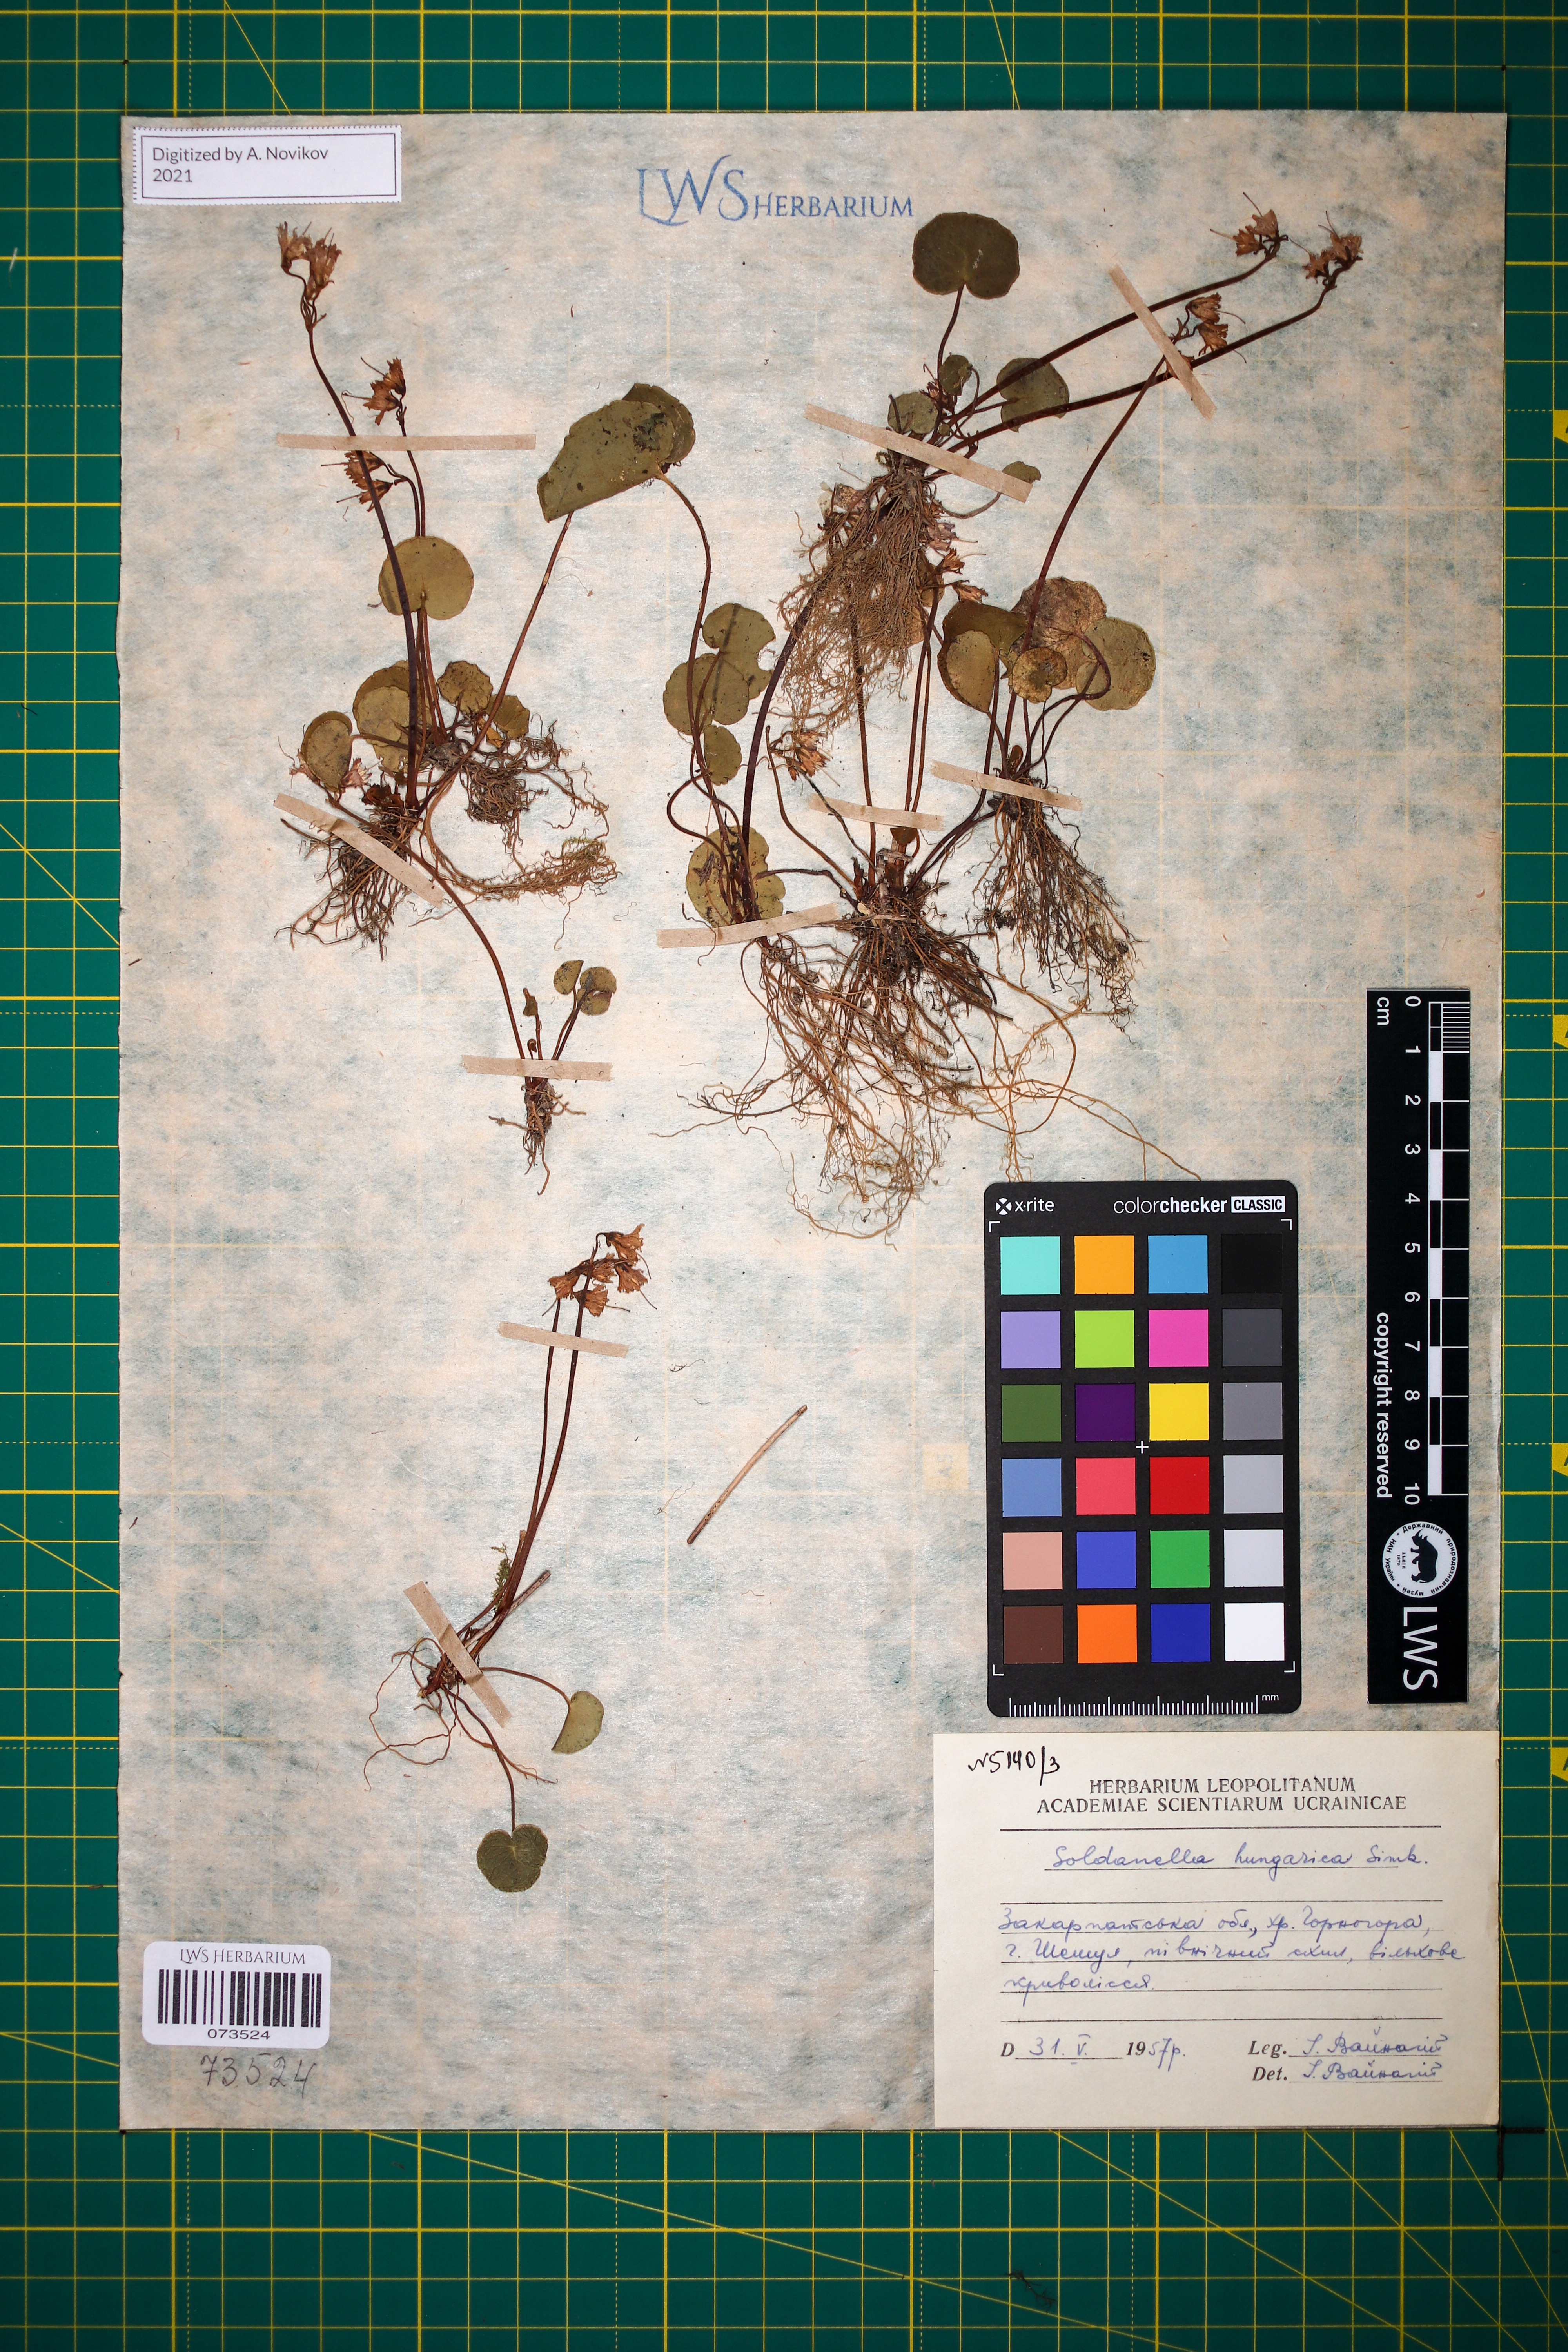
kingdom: Plantae
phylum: Tracheophyta
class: Magnoliopsida
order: Ericales
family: Primulaceae
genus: Soldanella
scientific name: Soldanella hungarica
